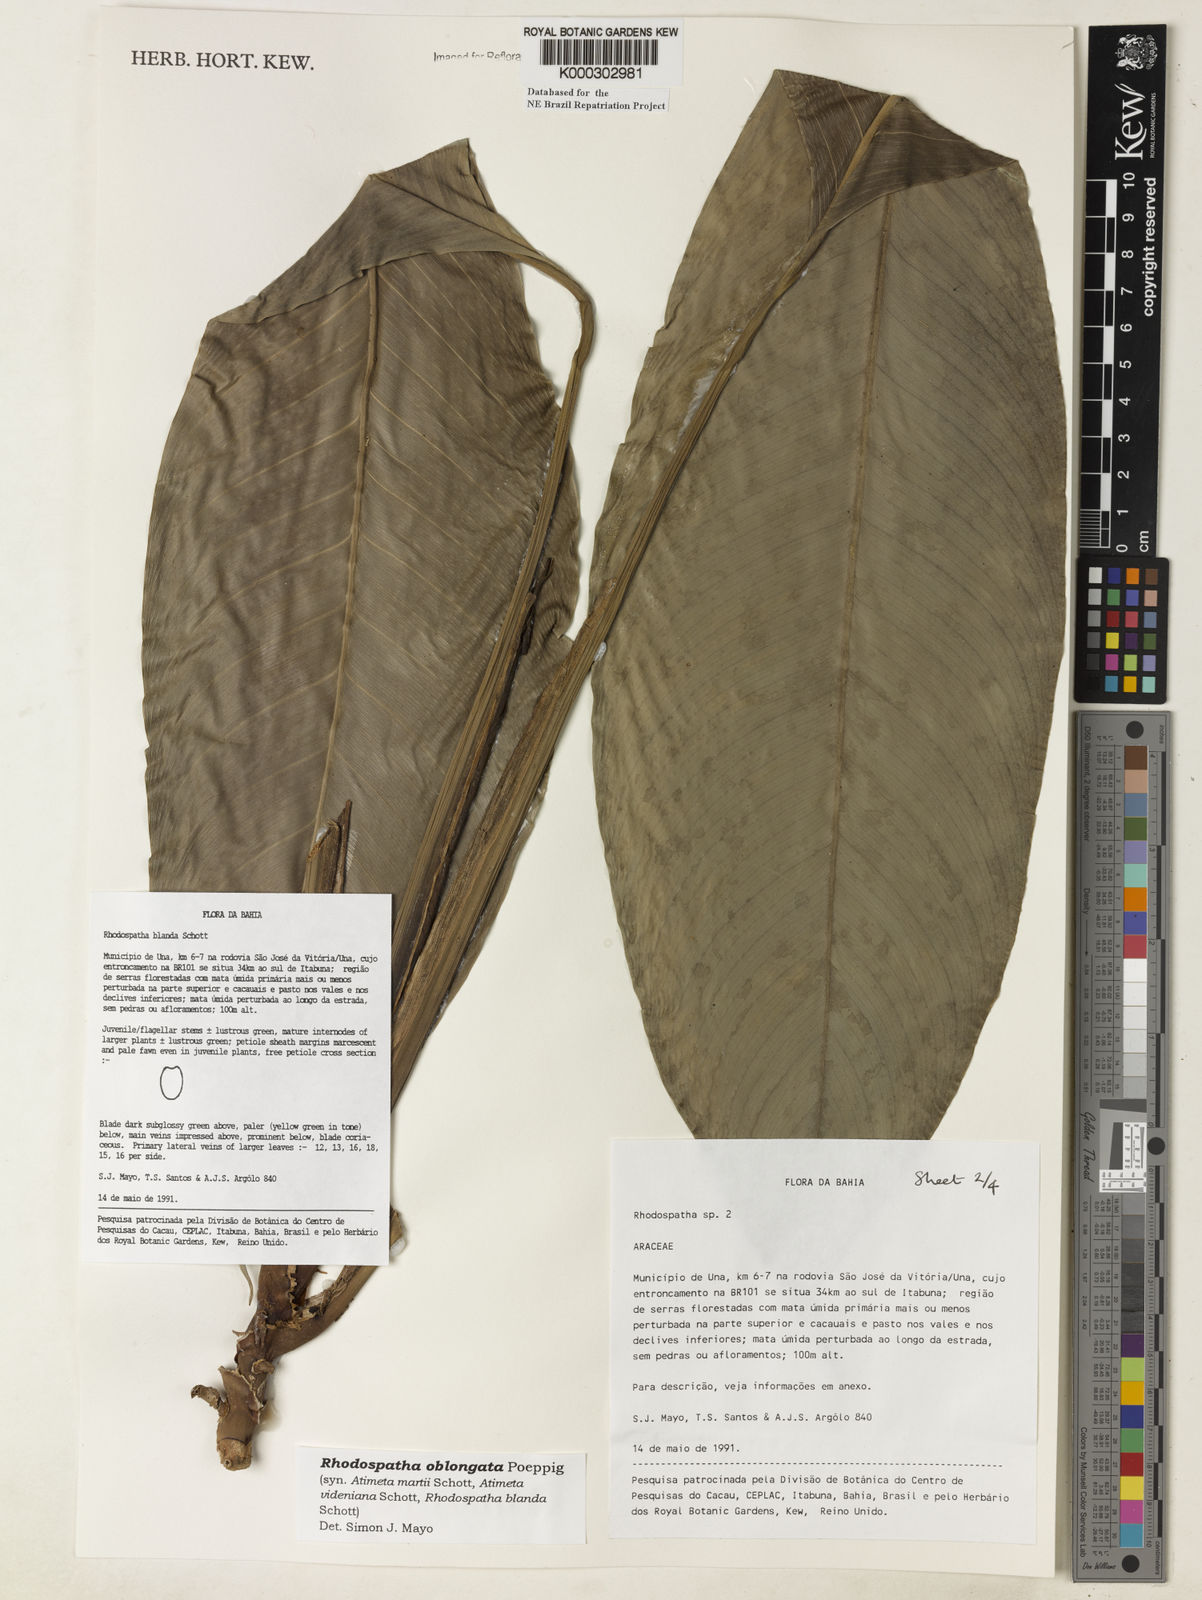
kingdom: Plantae
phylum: Tracheophyta
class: Liliopsida
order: Alismatales
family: Araceae
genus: Rhodospatha
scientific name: Rhodospatha oblongata
